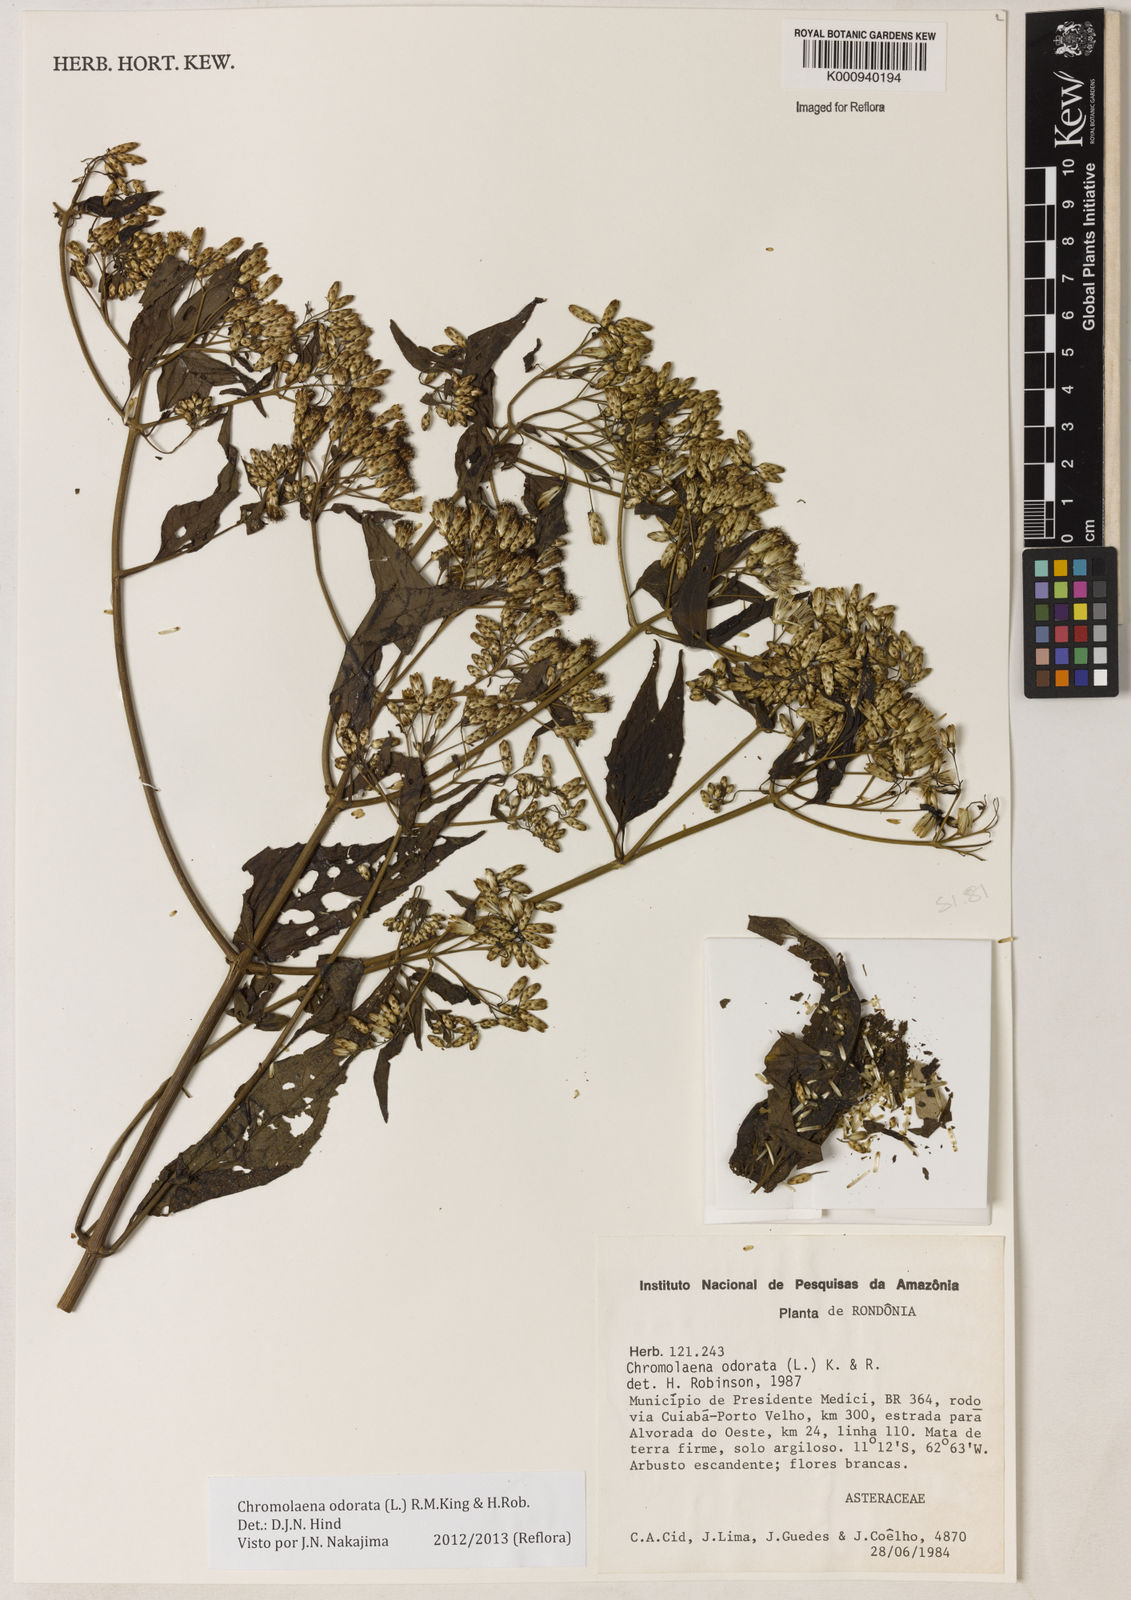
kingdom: Plantae
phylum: Tracheophyta
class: Magnoliopsida
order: Asterales
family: Asteraceae
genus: Chromolaena
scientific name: Chromolaena odorata
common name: Siamweed
